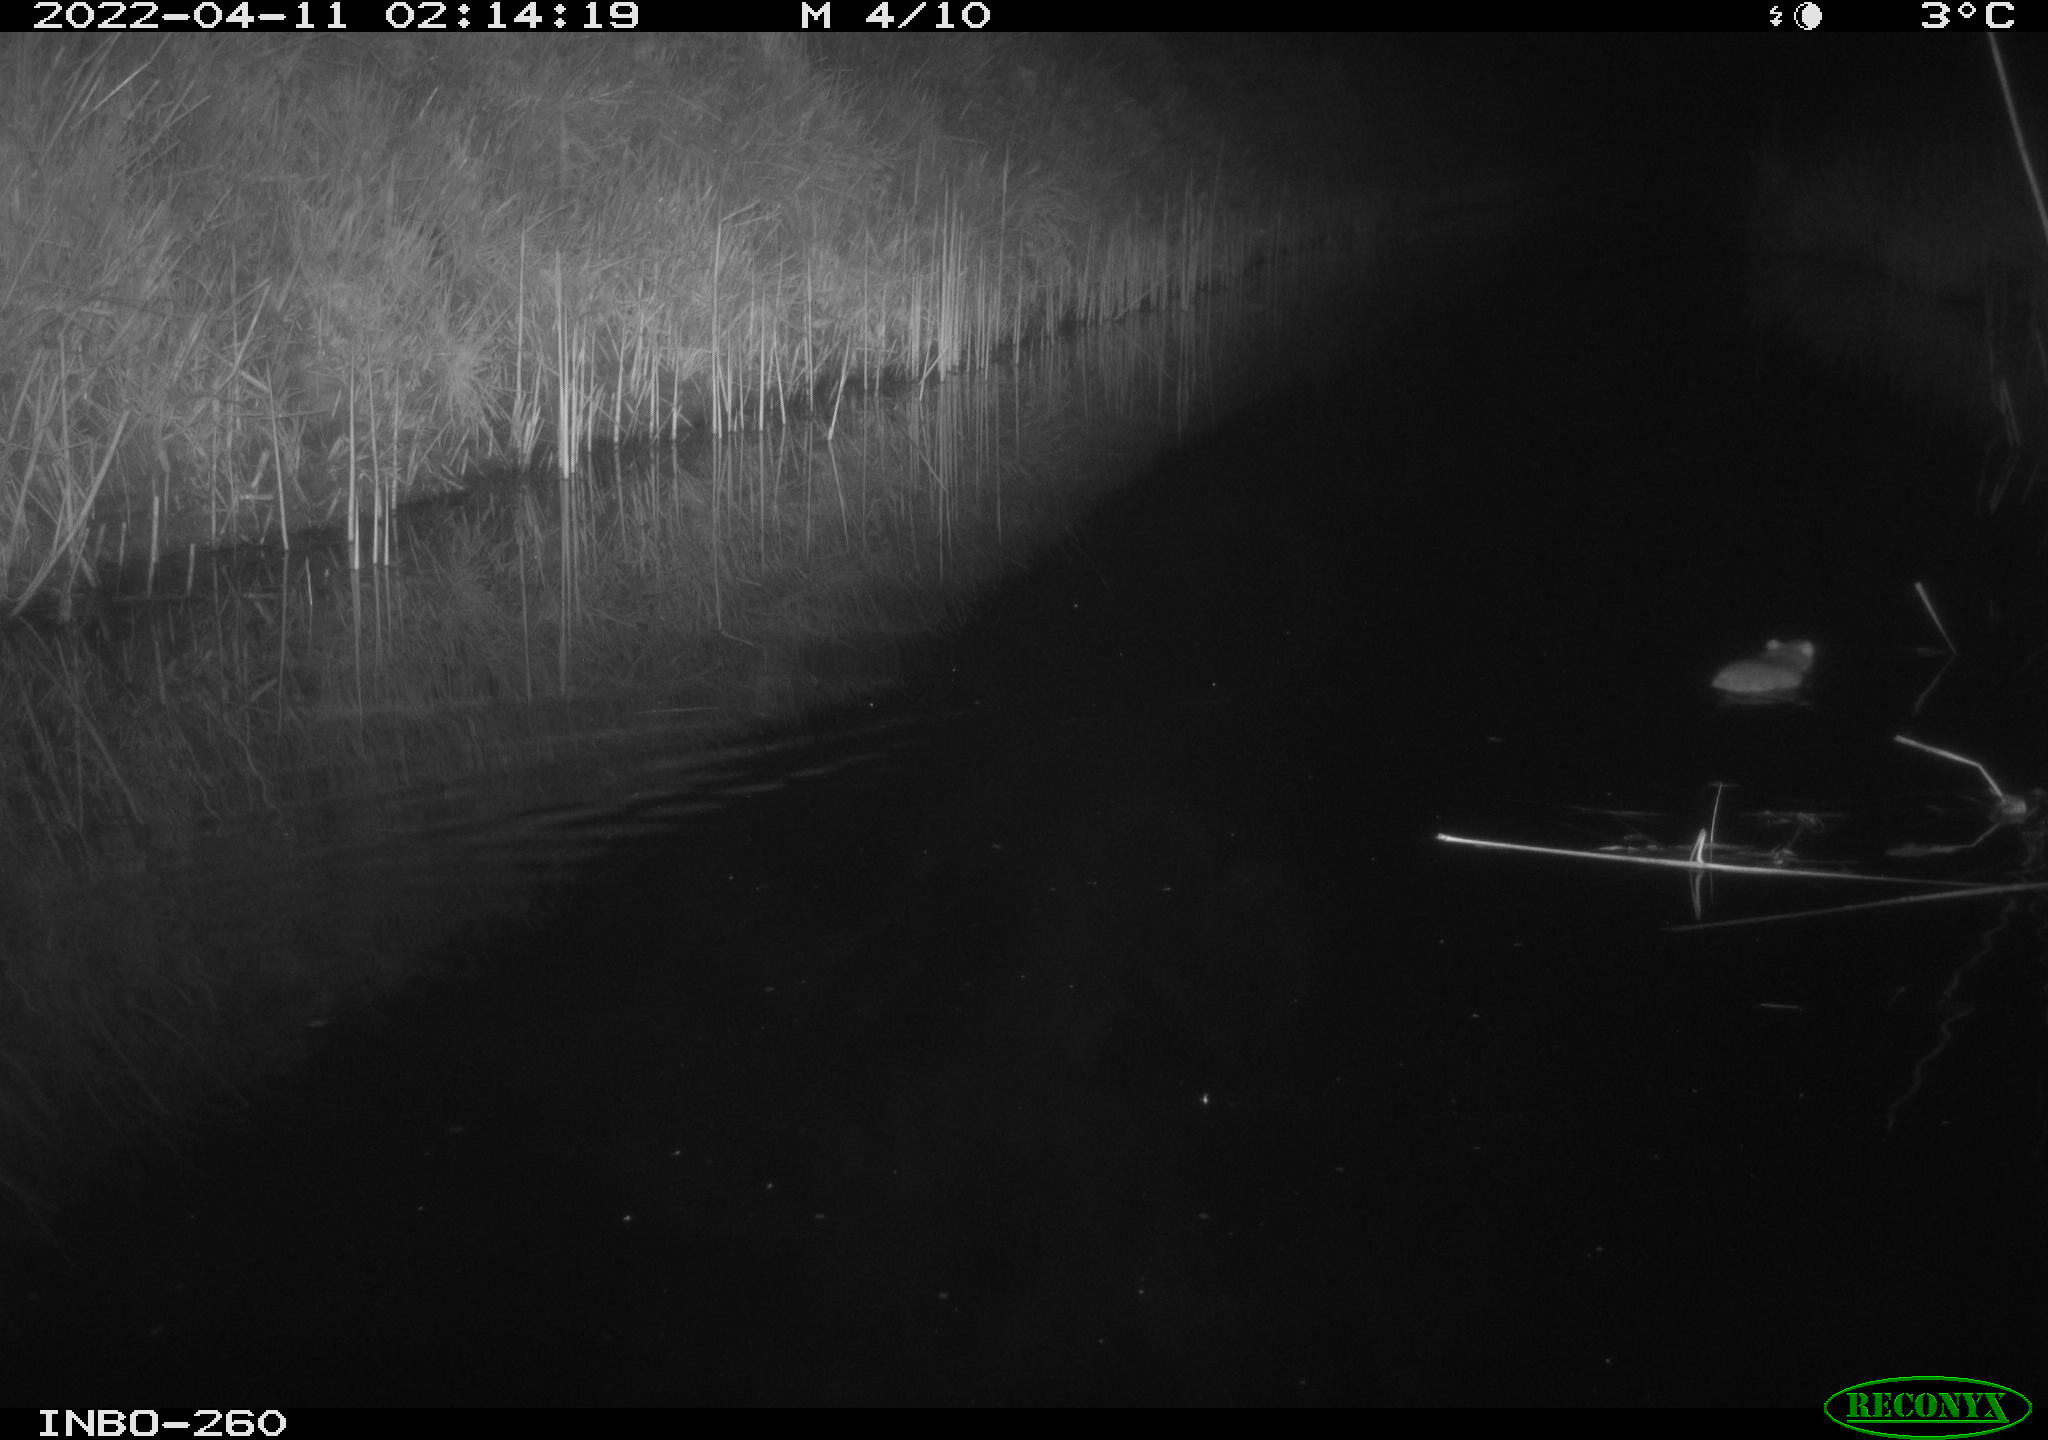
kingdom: Animalia
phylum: Chordata
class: Mammalia
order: Rodentia
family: Muridae
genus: Rattus
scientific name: Rattus norvegicus
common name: Brown rat
